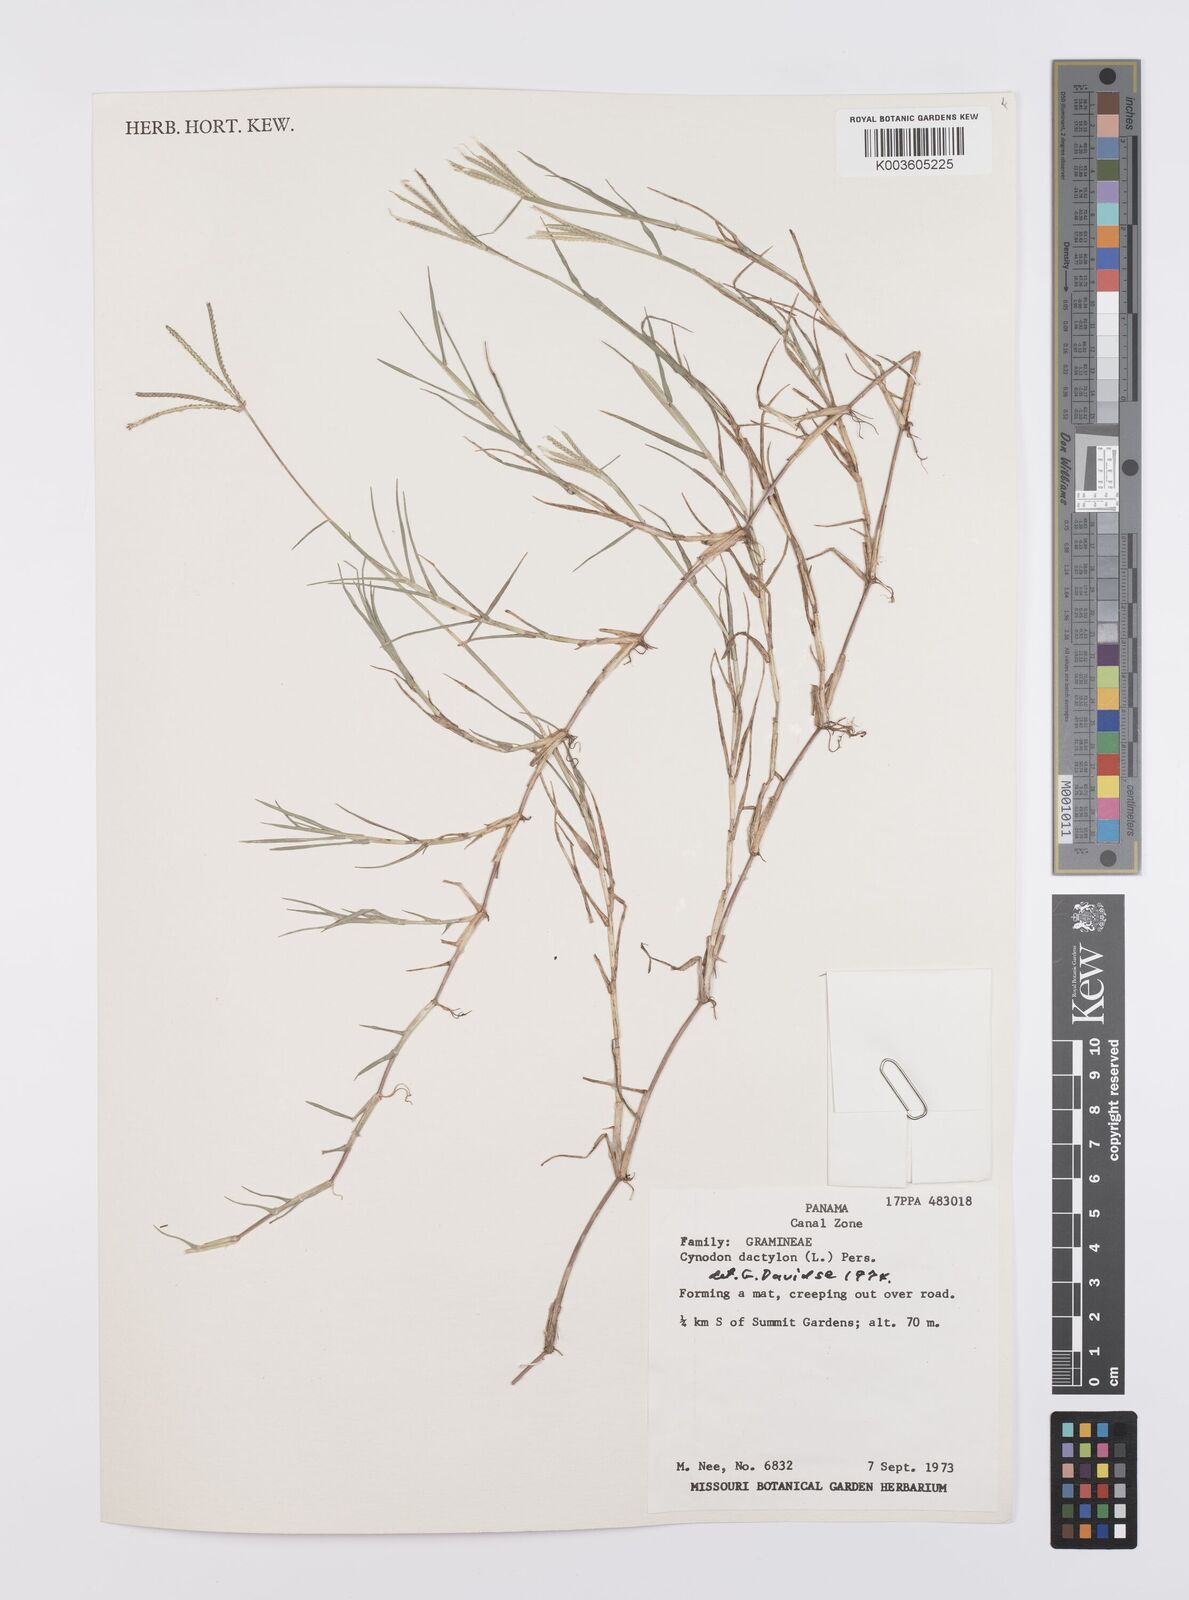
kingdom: Plantae
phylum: Tracheophyta
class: Liliopsida
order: Poales
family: Poaceae
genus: Cynodon
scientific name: Cynodon dactylon
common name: Bermuda grass
